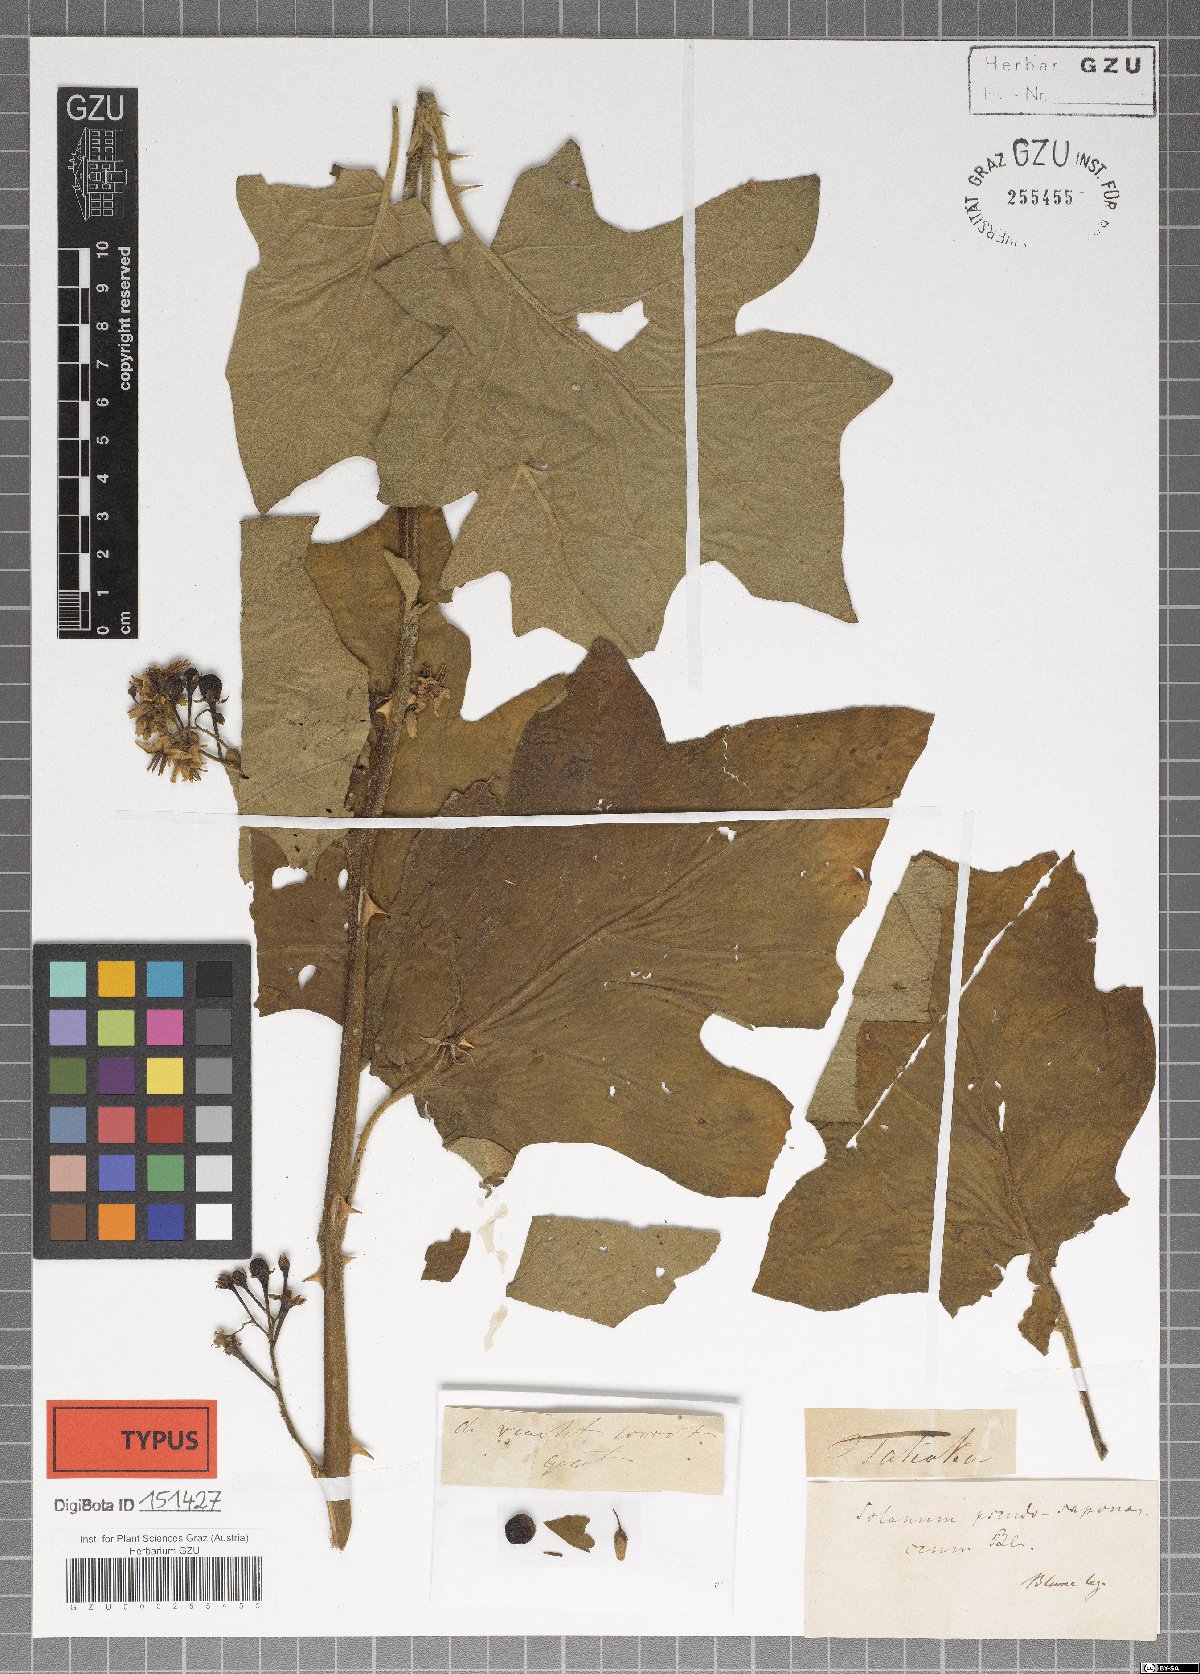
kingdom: Plantae
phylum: Tracheophyta
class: Magnoliopsida
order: Solanales
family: Solanaceae
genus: Solanum
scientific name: Solanum pseudosaponaceum
